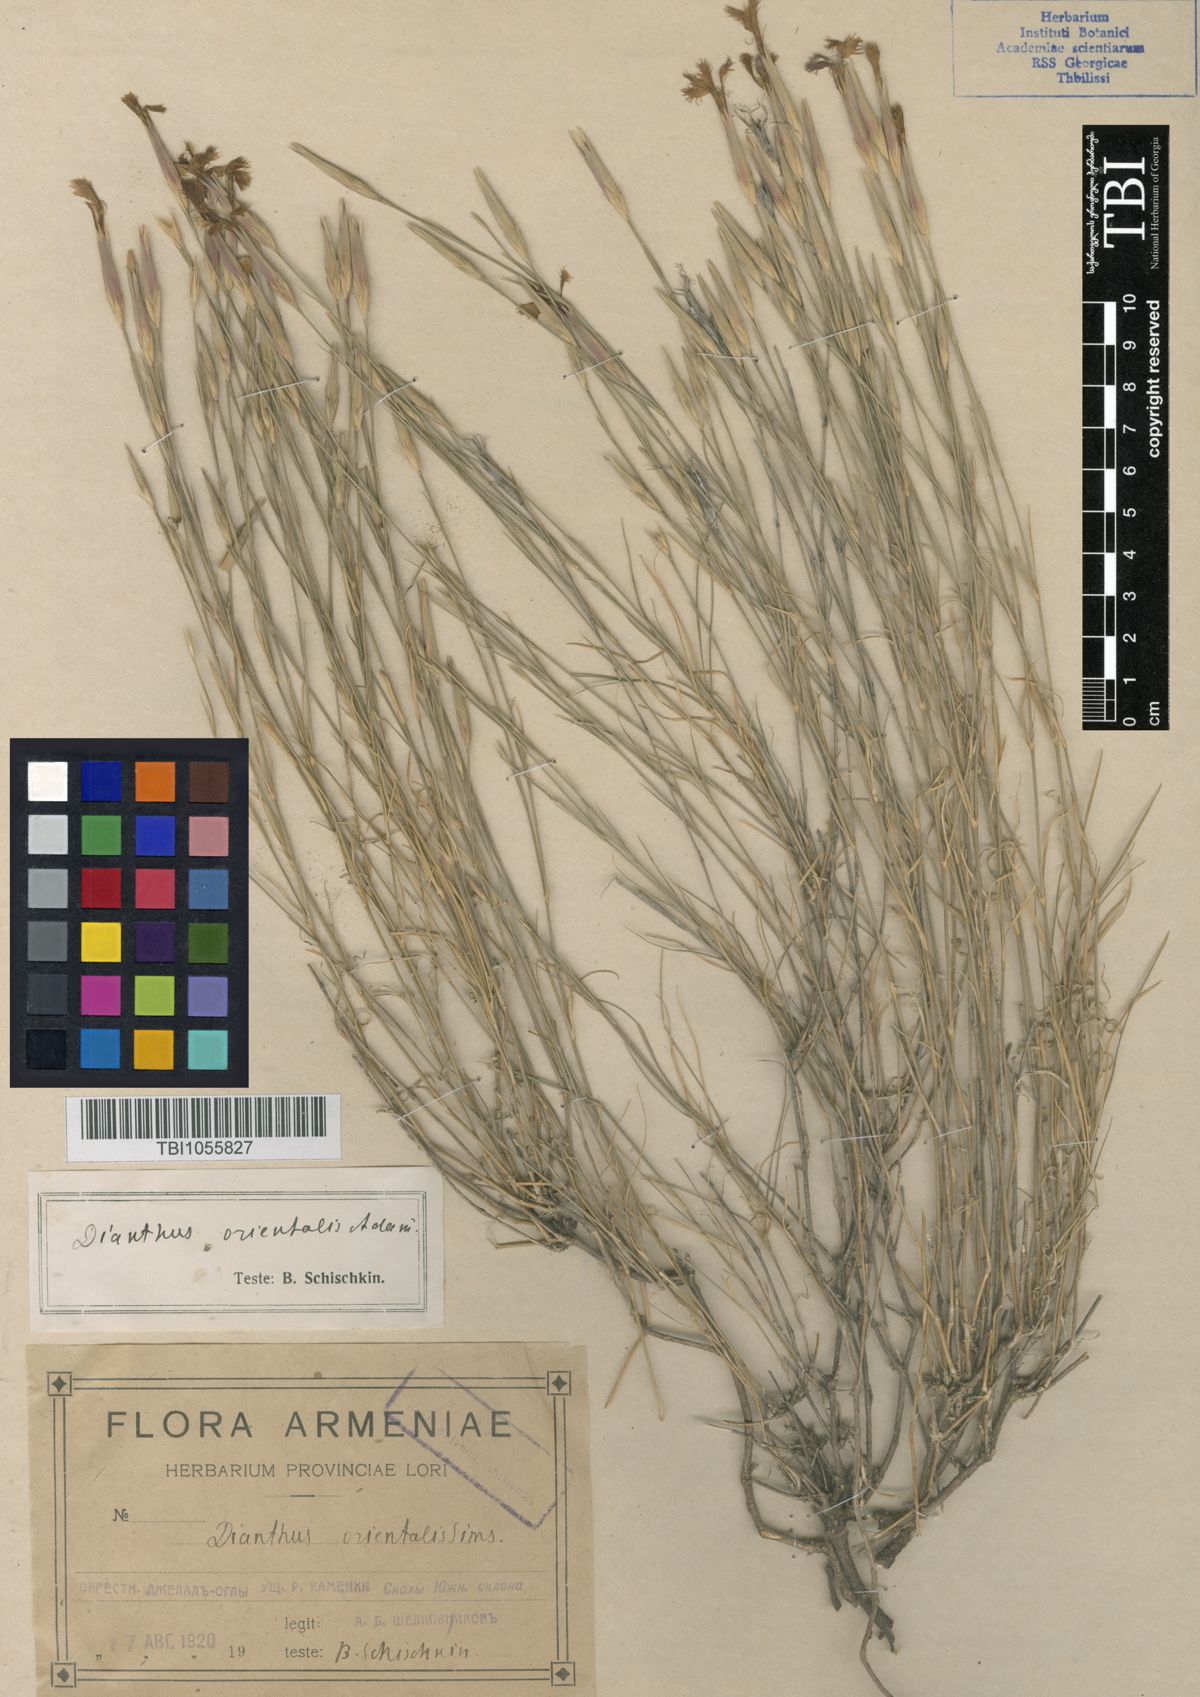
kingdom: Plantae
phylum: Tracheophyta
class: Magnoliopsida
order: Caryophyllales
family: Caryophyllaceae
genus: Dianthus
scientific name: Dianthus orientalis
